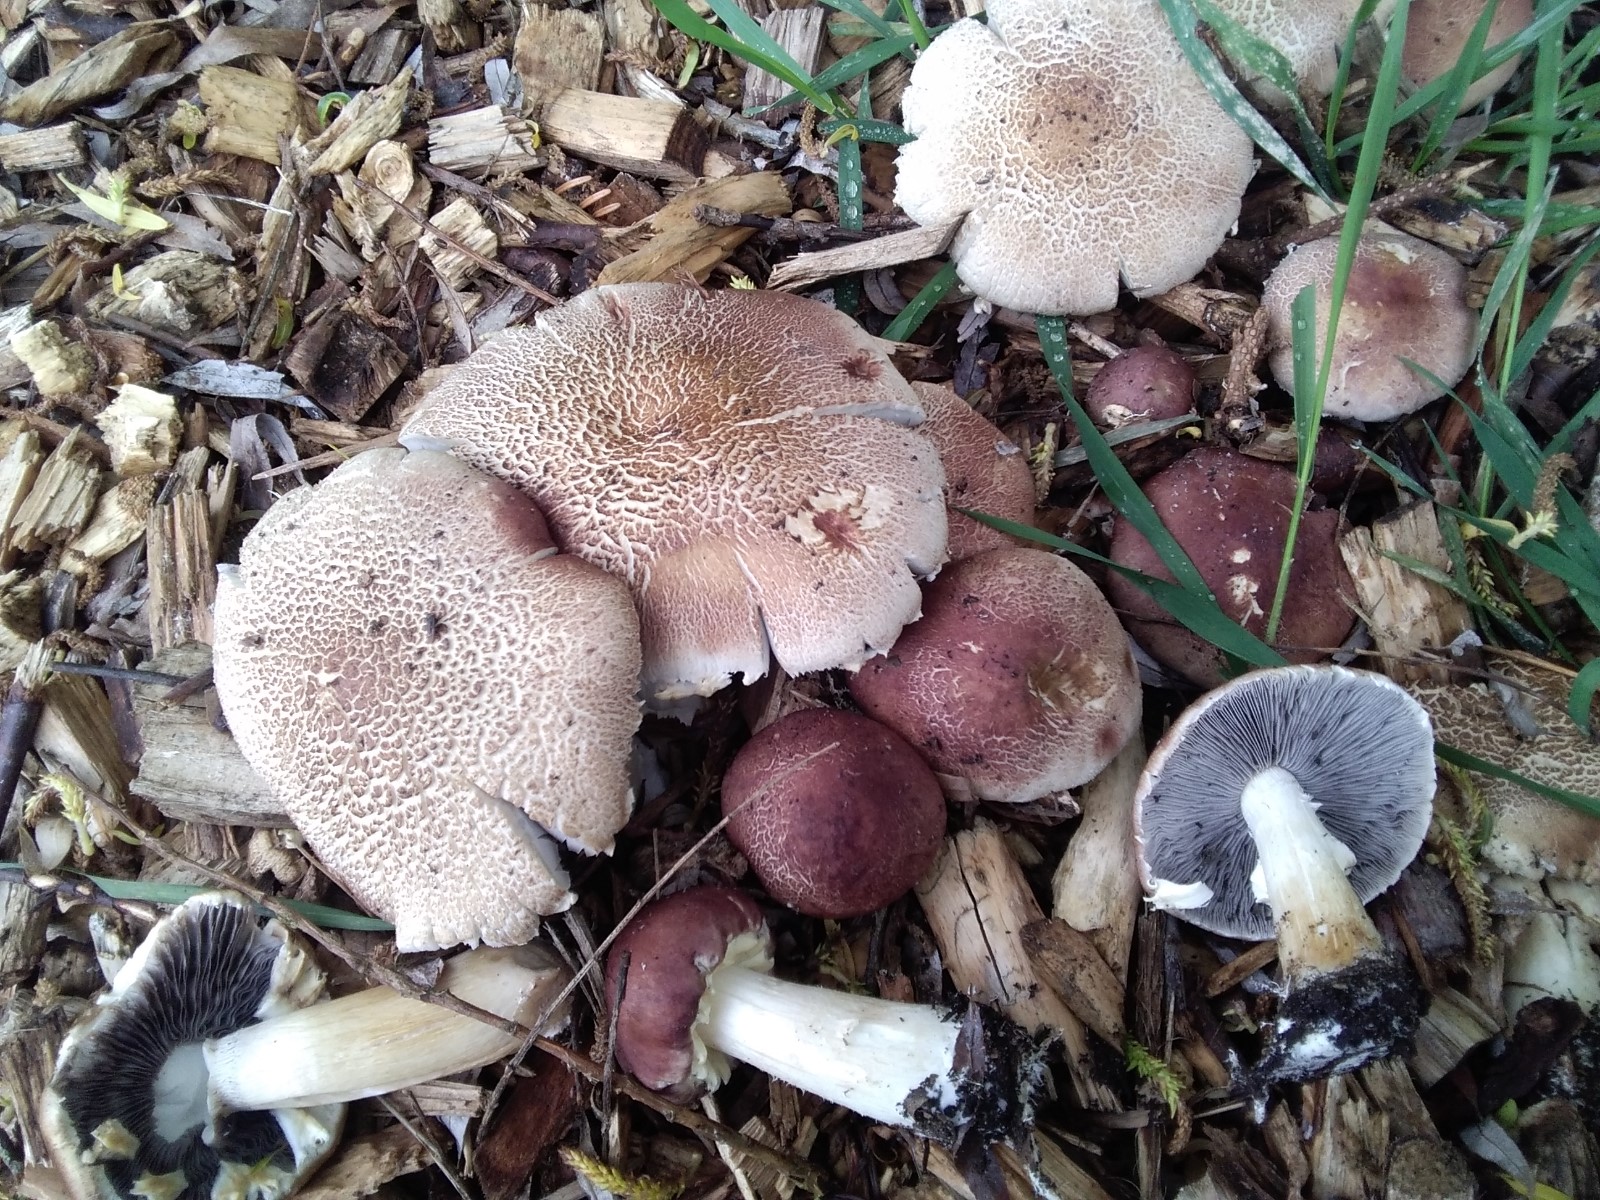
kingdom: Fungi
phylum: Basidiomycota
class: Agaricomycetes
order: Agaricales
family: Strophariaceae
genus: Stropharia
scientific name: Stropharia rugosoannulata
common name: rødbrun bredblad
